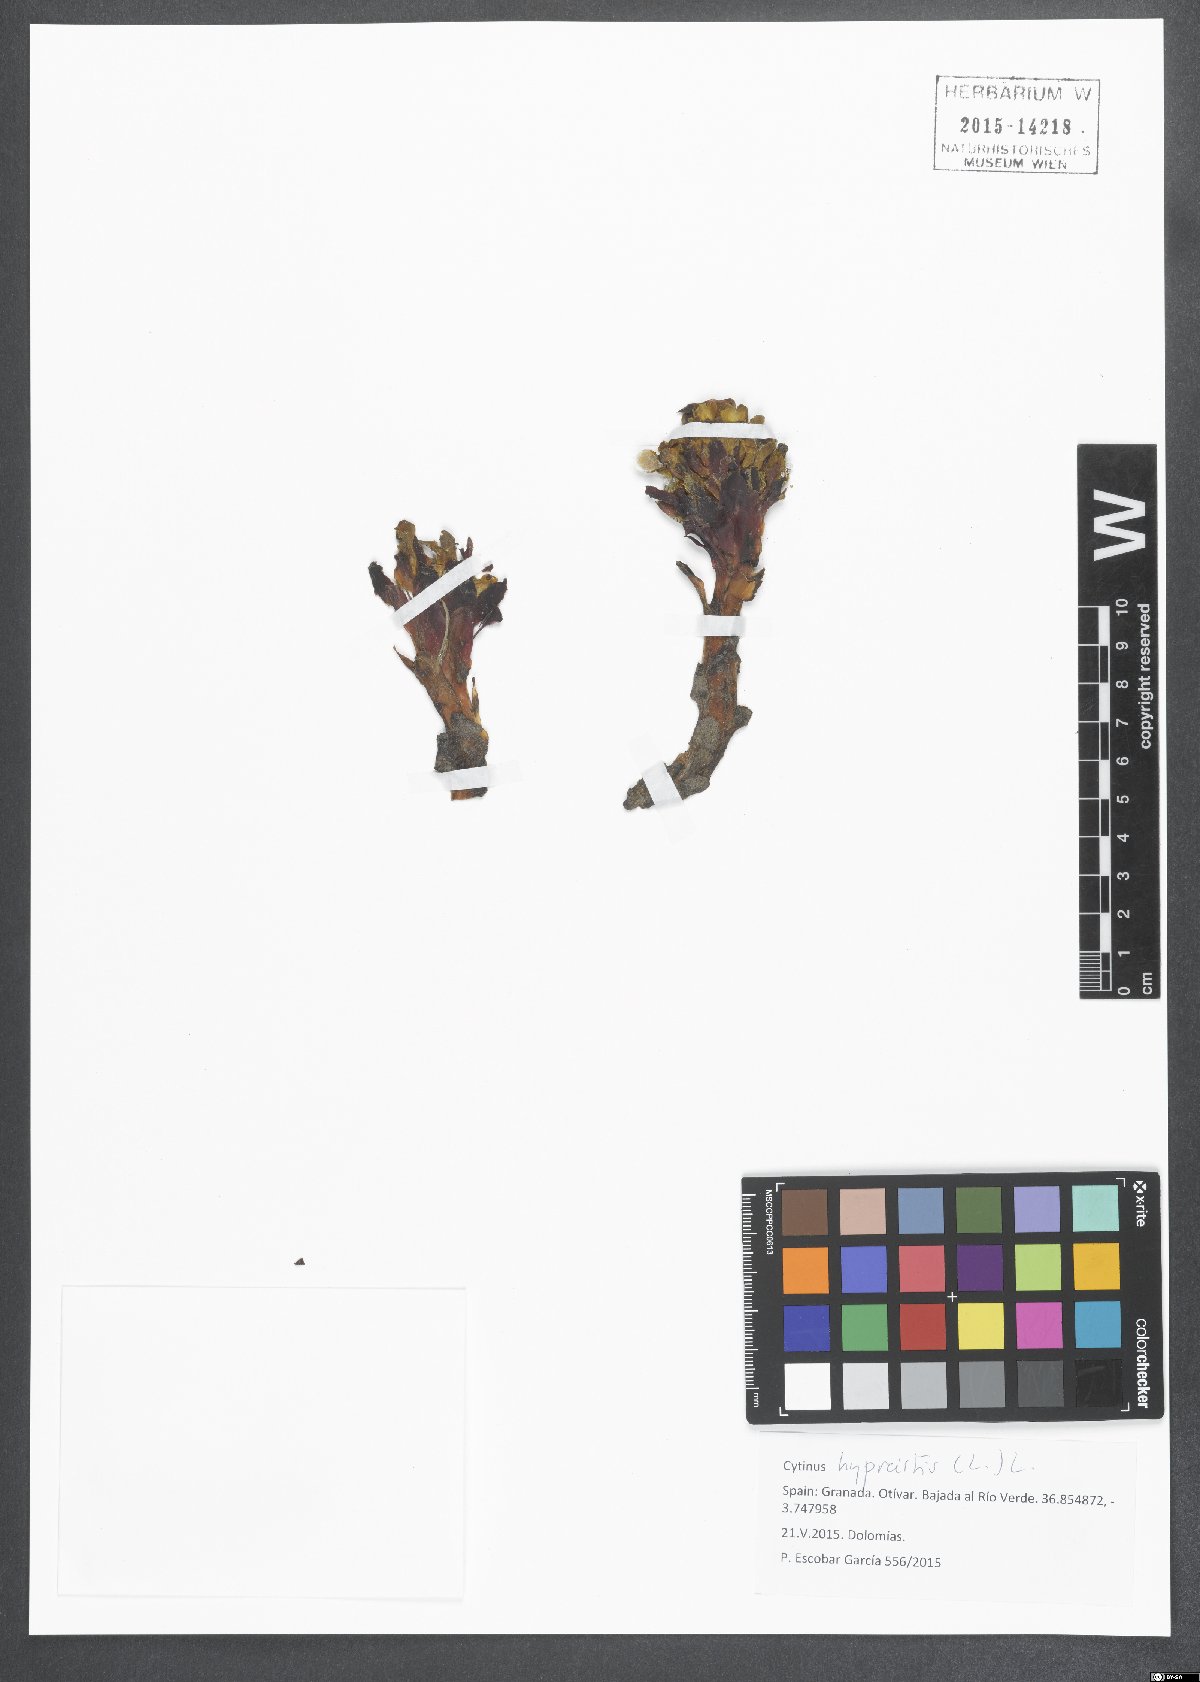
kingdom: Plantae
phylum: Tracheophyta
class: Magnoliopsida
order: Malvales
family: Cytinaceae
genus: Cytinus
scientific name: Cytinus hypocistis
